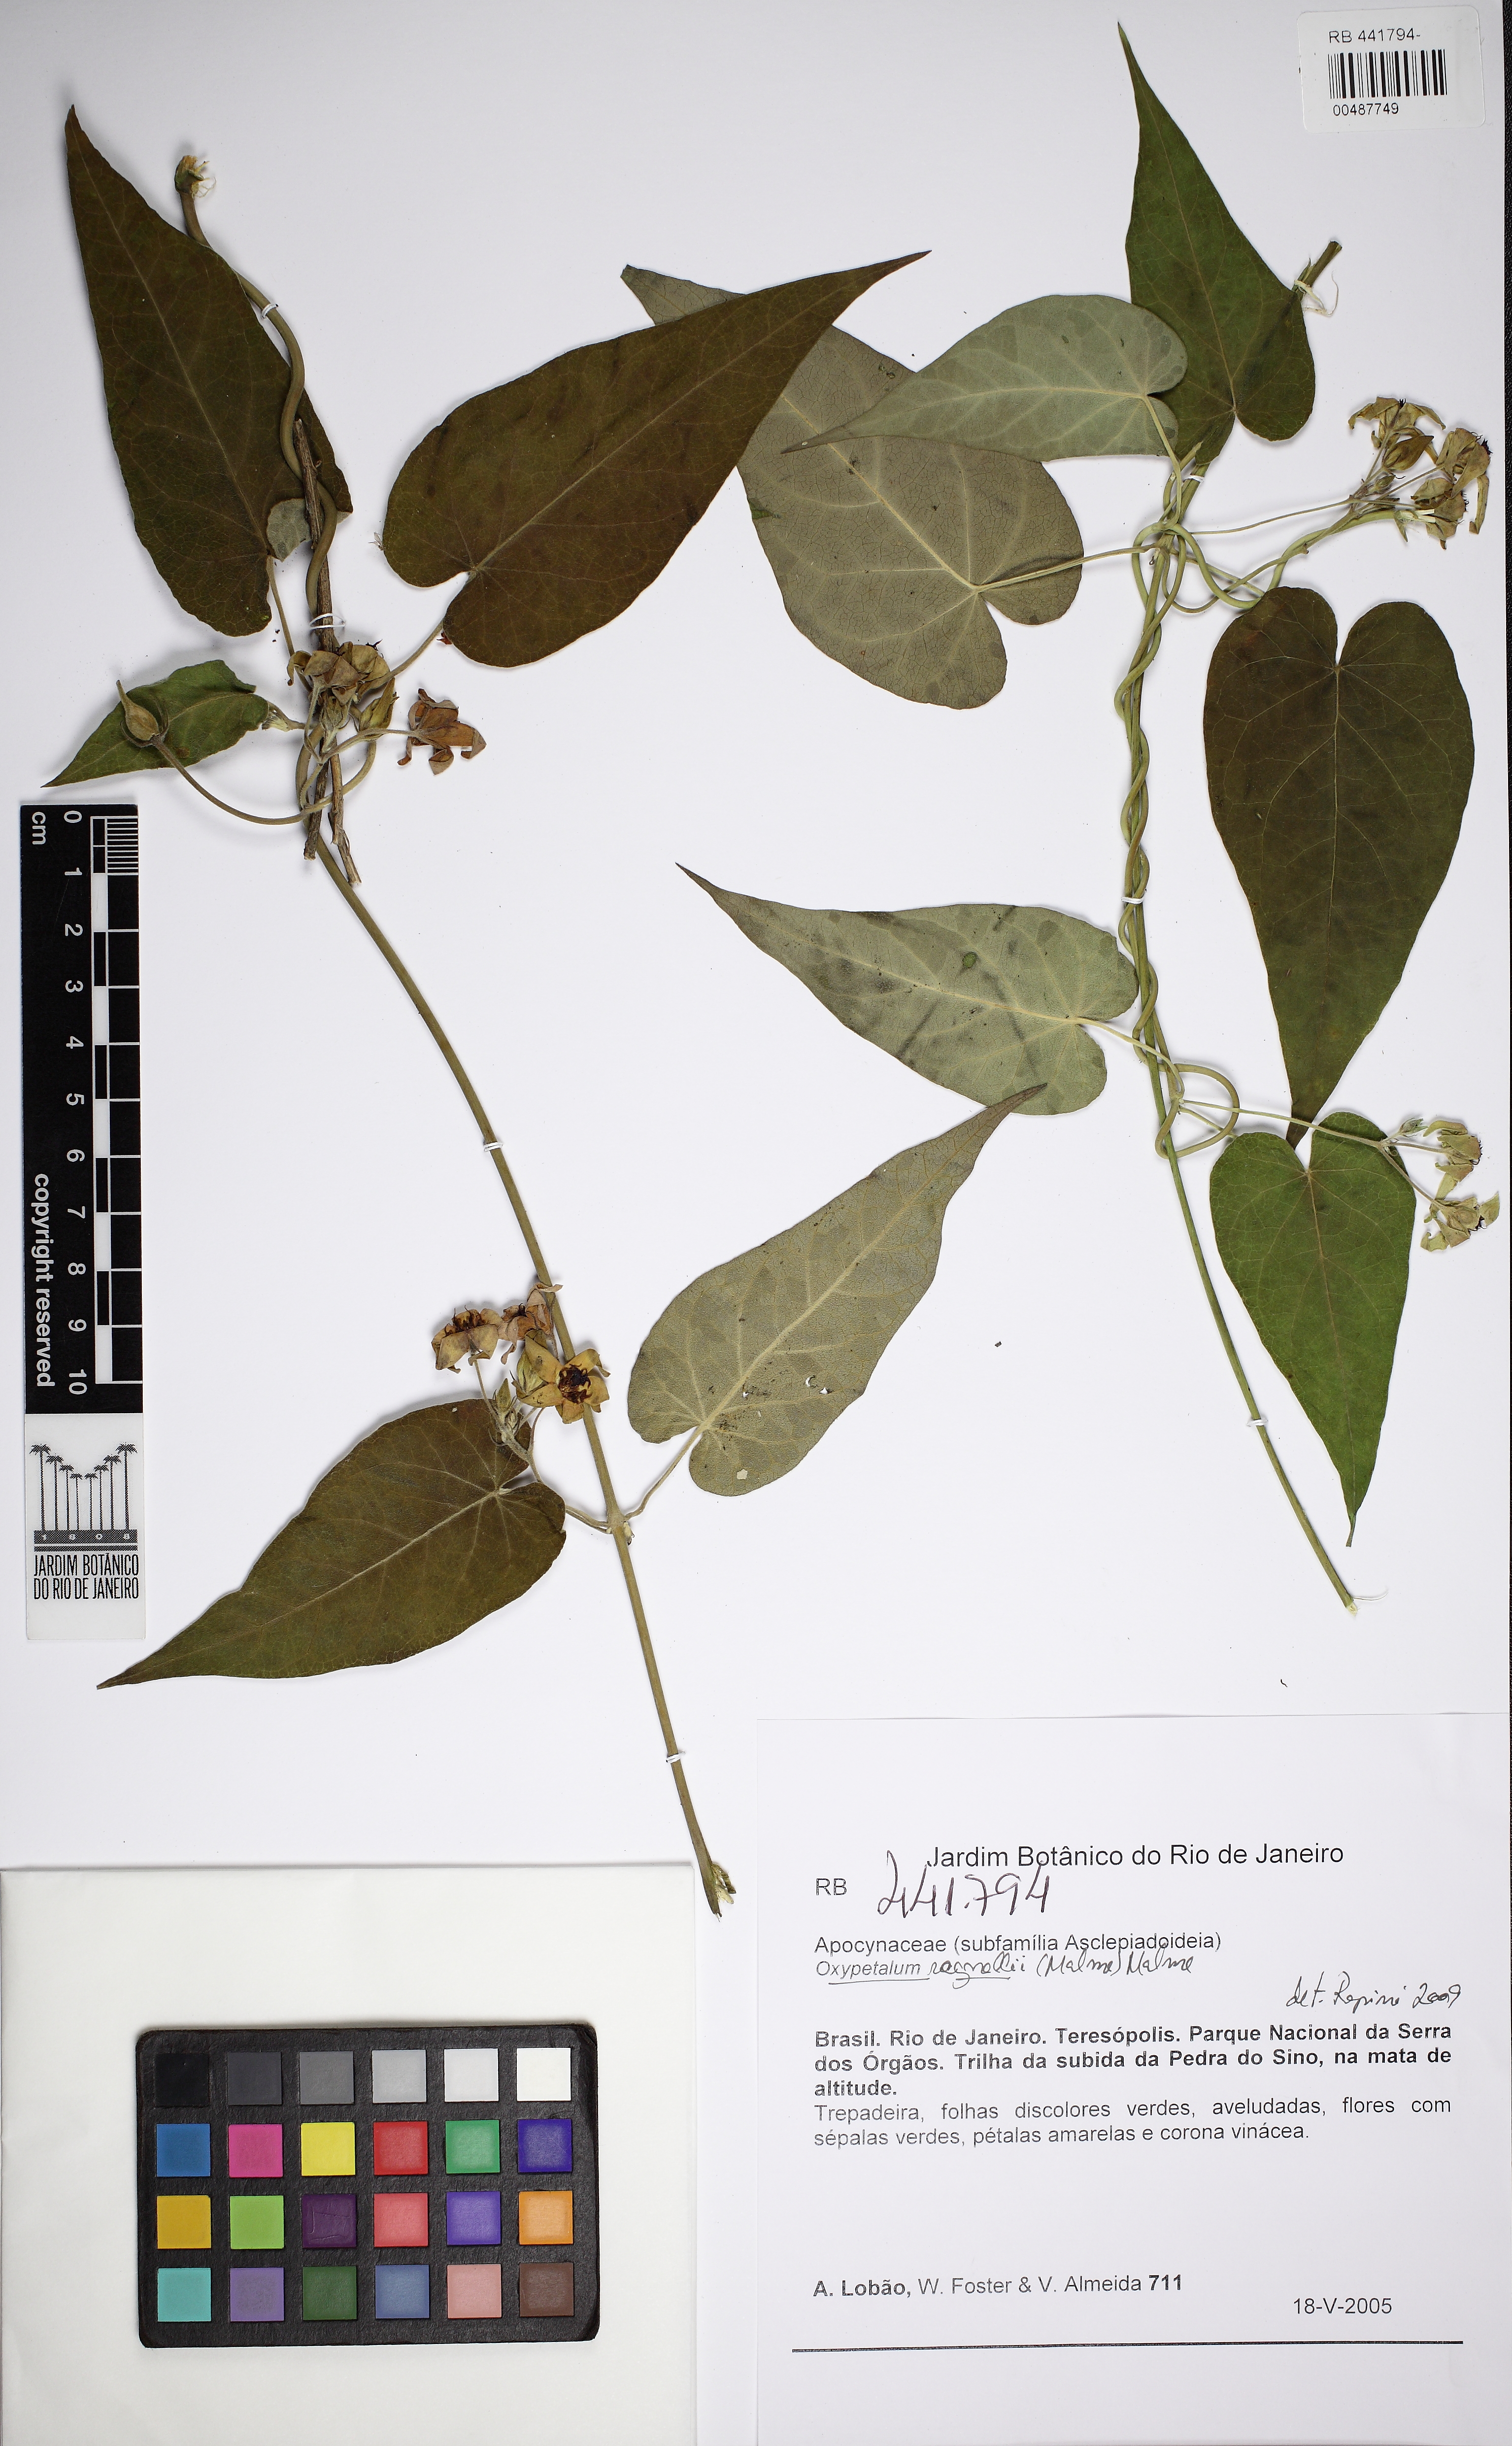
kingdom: Plantae
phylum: Tracheophyta
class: Magnoliopsida
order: Gentianales
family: Apocynaceae
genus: Oxypetalum
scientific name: Oxypetalum regnellii
